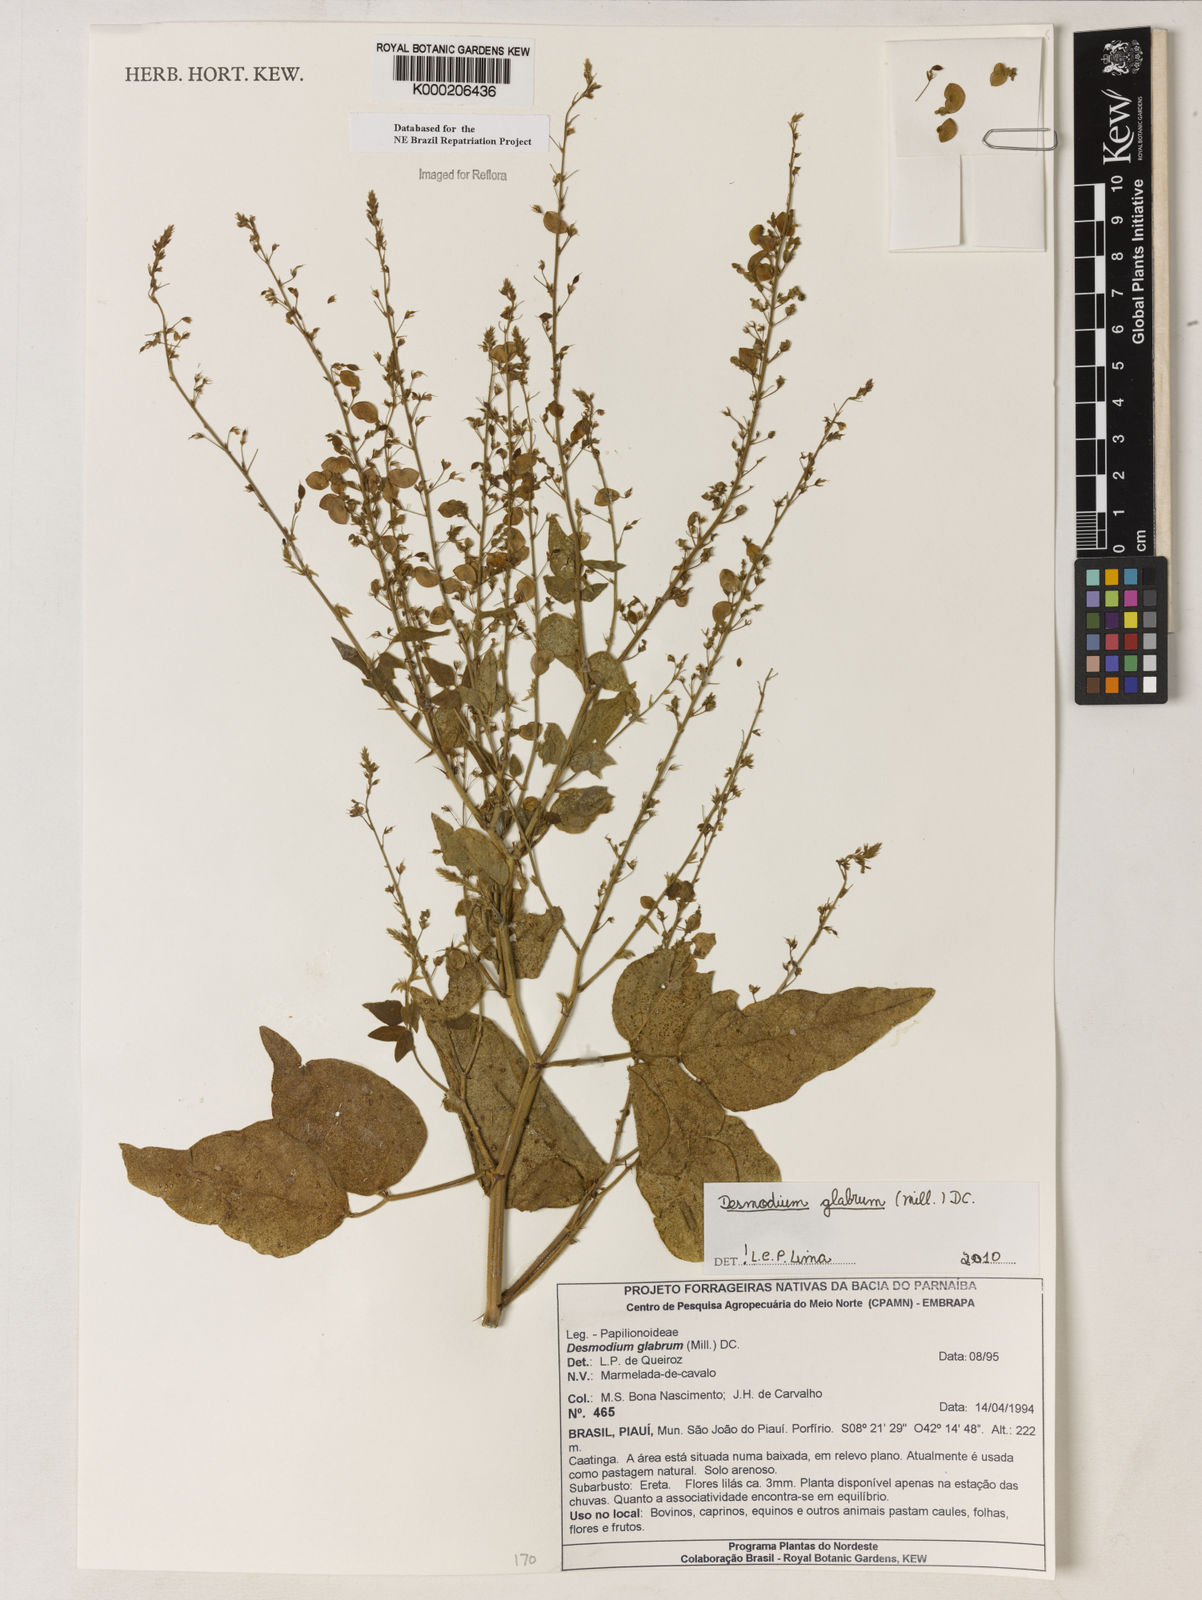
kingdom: Plantae
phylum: Tracheophyta
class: Magnoliopsida
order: Fabales
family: Fabaceae
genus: Desmodium
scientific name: Desmodium glabrum
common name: Zarzabacoa dulce
